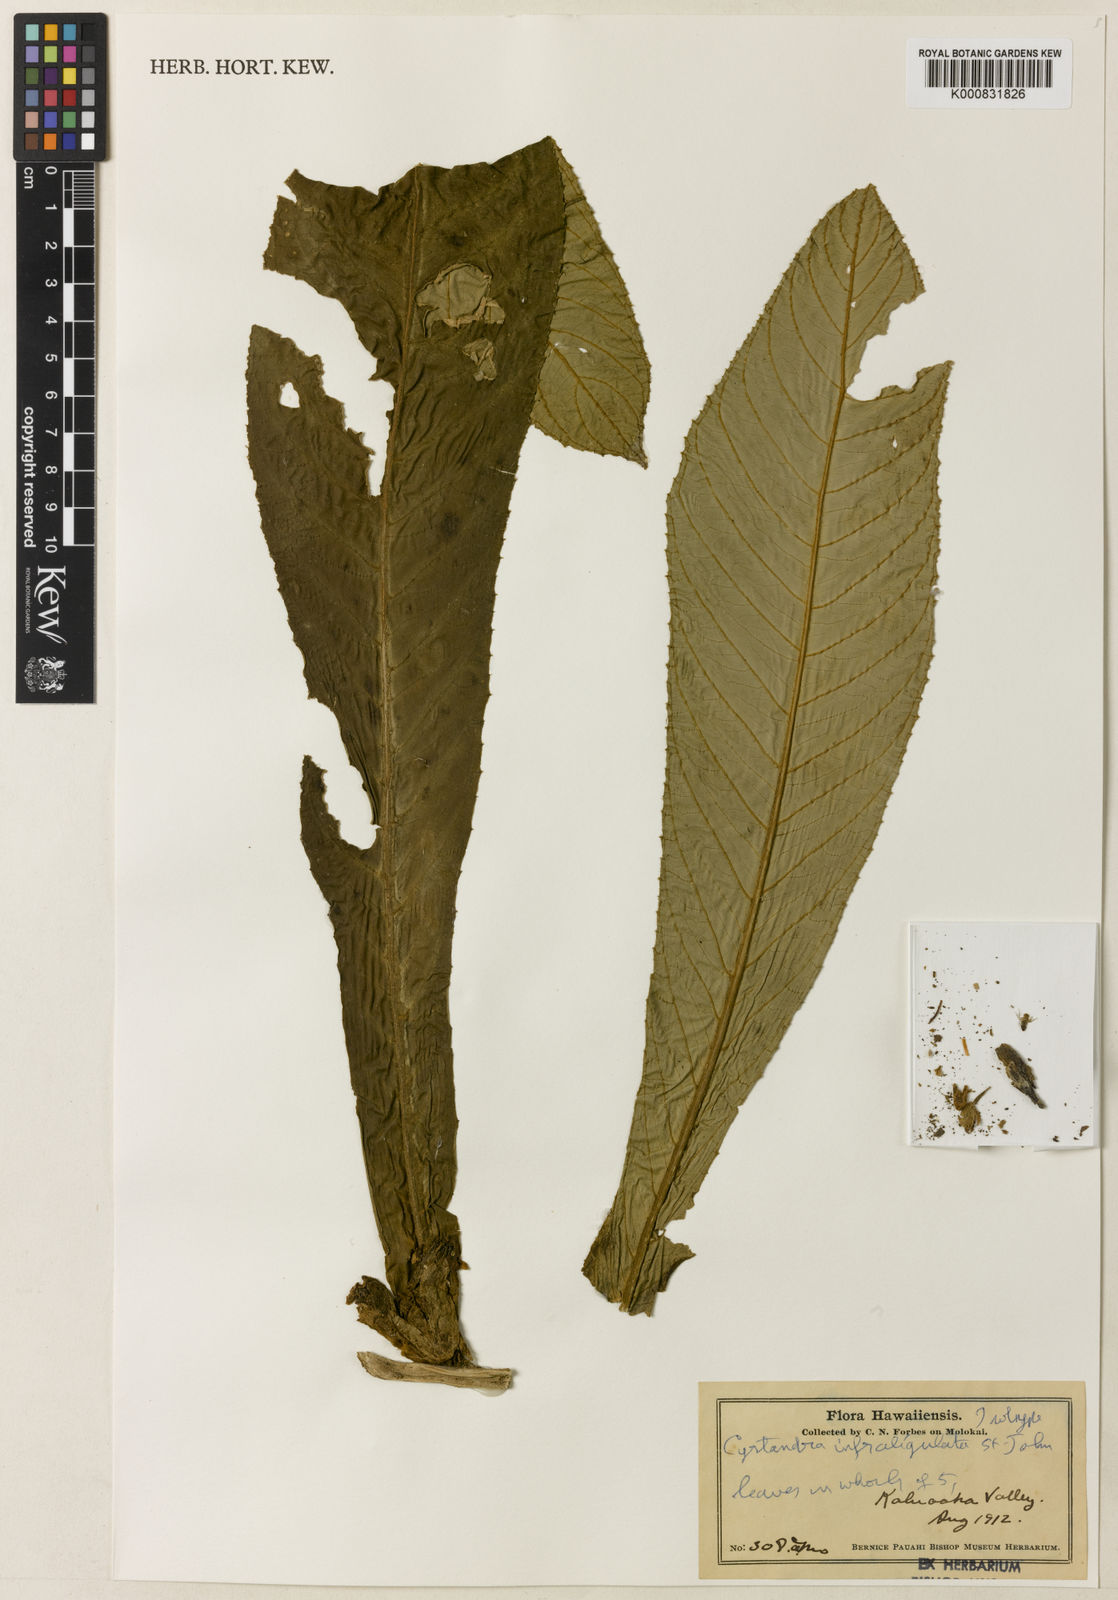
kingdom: Plantae
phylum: Tracheophyta
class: Magnoliopsida
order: Lamiales
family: Gesneriaceae
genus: Cyrtandra
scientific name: Cyrtandra hawaiensis
